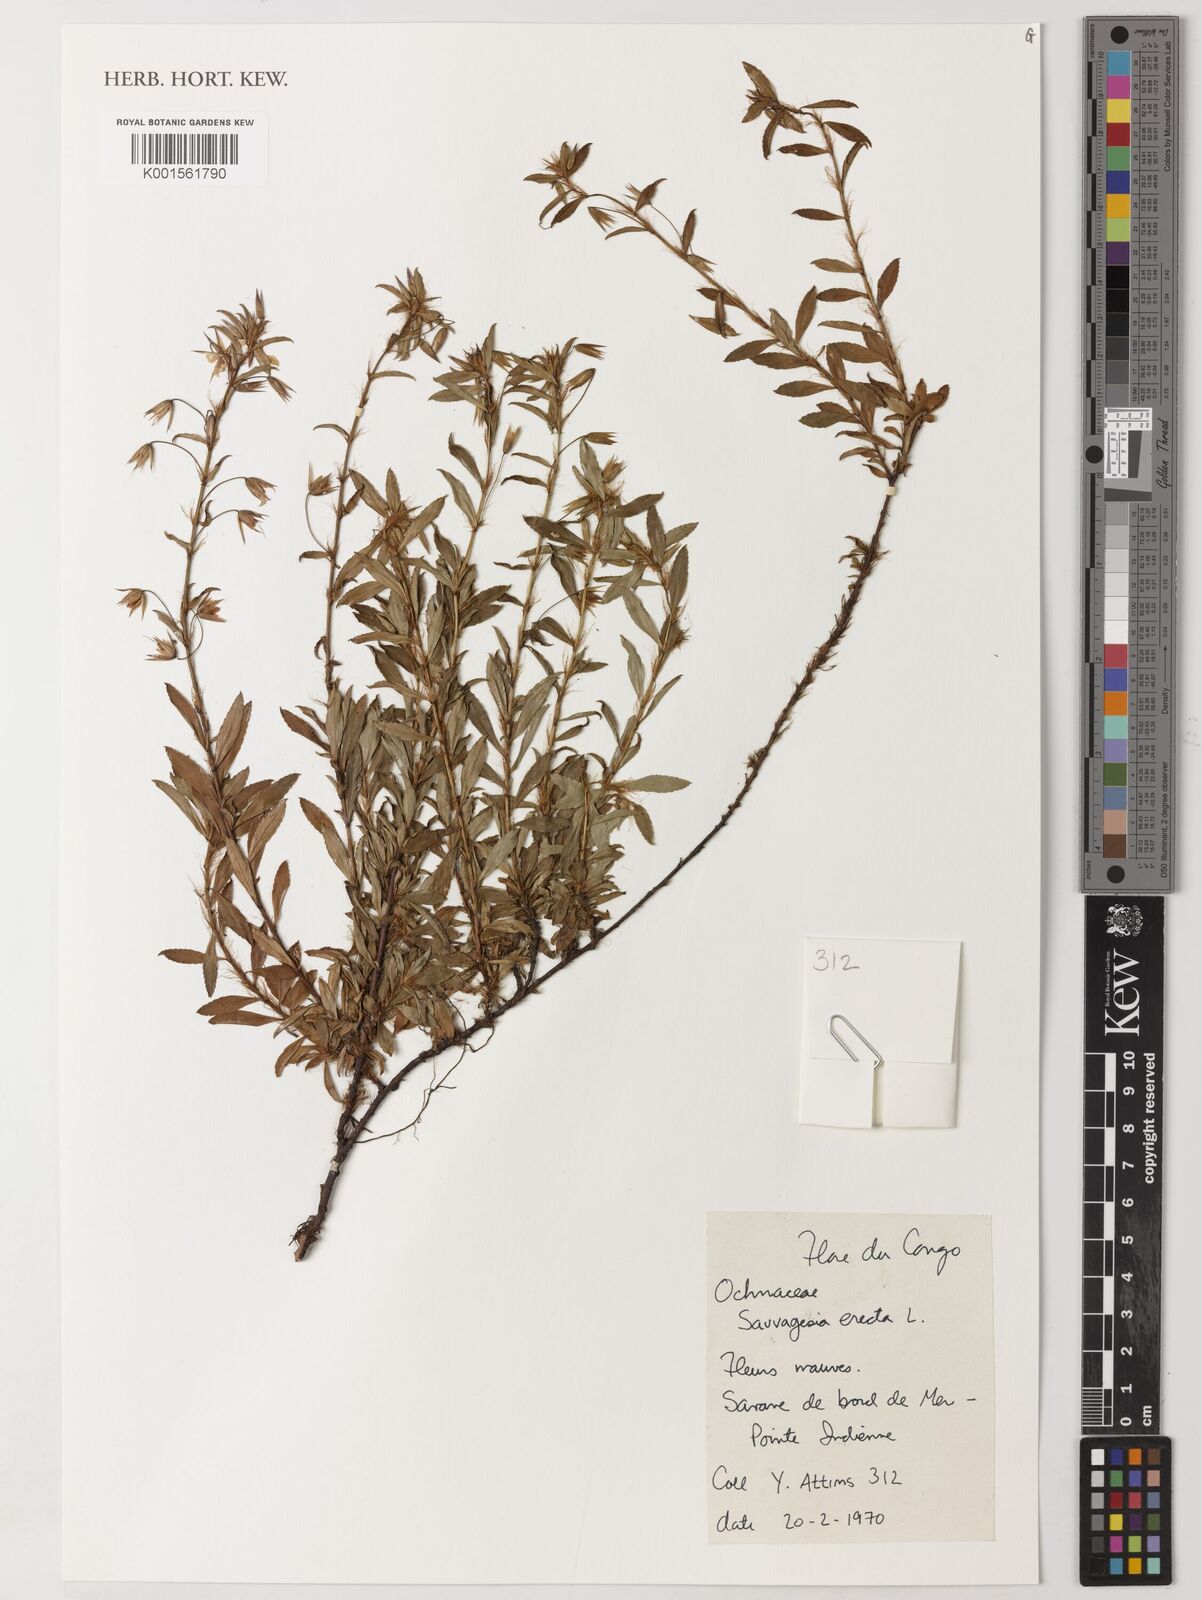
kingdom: Plantae
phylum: Tracheophyta
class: Magnoliopsida
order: Malpighiales
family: Ochnaceae
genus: Sauvagesia
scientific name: Sauvagesia erecta
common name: Creole tea
